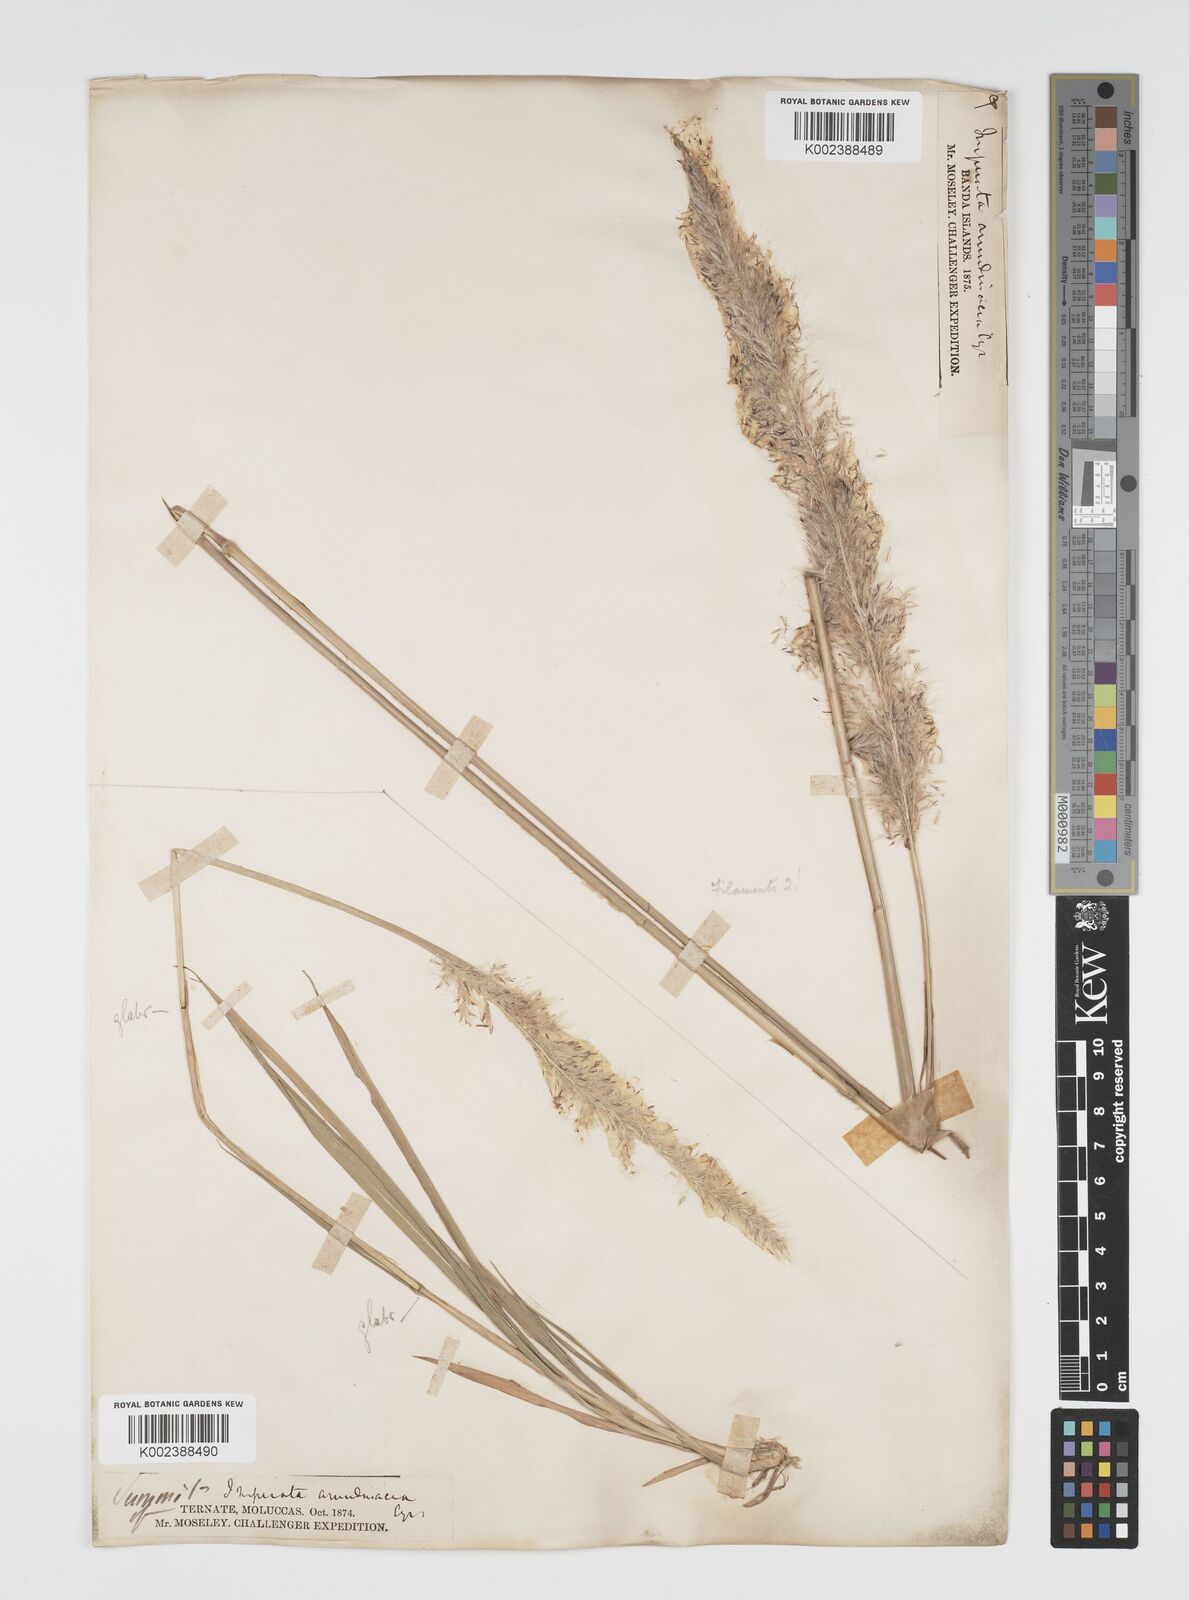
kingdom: Plantae
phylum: Tracheophyta
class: Liliopsida
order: Poales
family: Poaceae
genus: Imperata
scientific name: Imperata cylindrica
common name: Cogongrass
